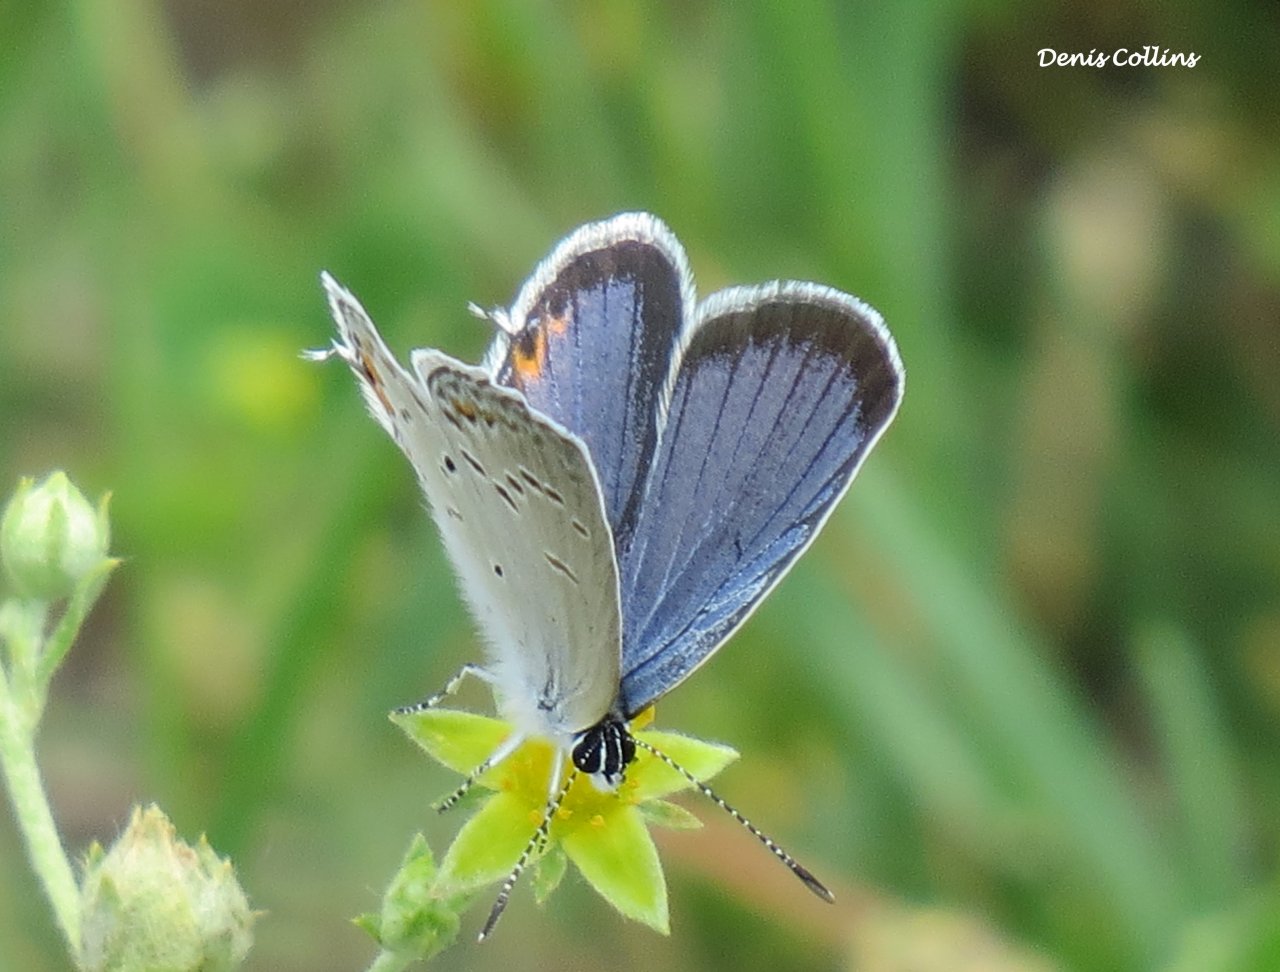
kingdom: Animalia
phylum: Arthropoda
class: Insecta
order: Lepidoptera
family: Lycaenidae
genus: Elkalyce
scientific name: Elkalyce comyntas
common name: Eastern Tailed-Blue
